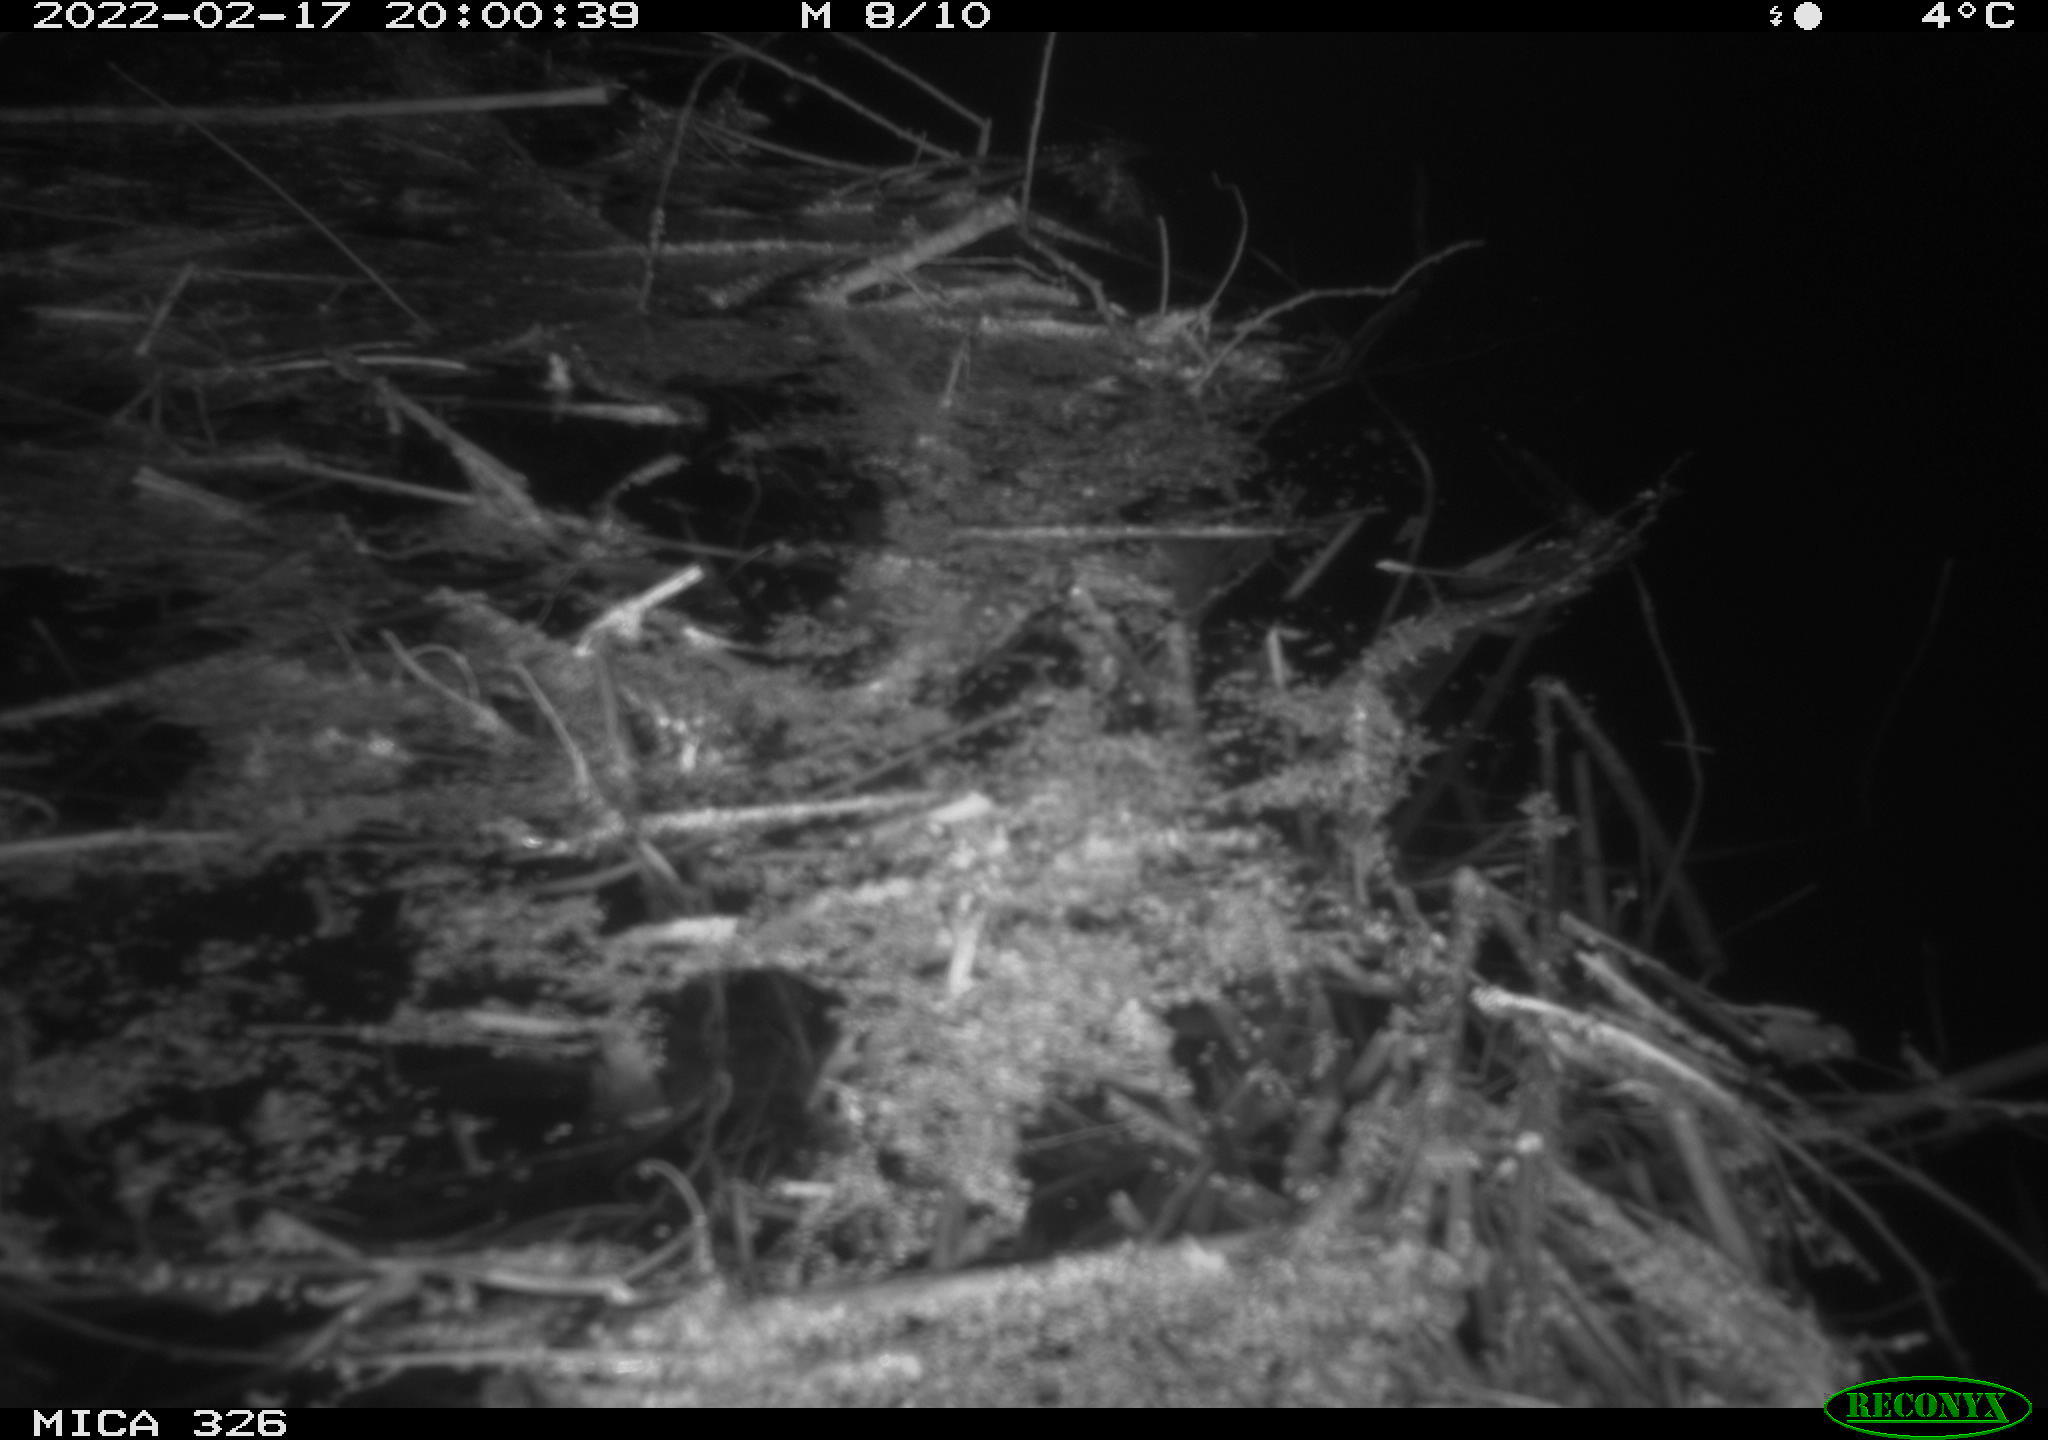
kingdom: Animalia
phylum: Chordata
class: Mammalia
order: Rodentia
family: Muridae
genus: Rattus
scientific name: Rattus norvegicus
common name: Brown rat
